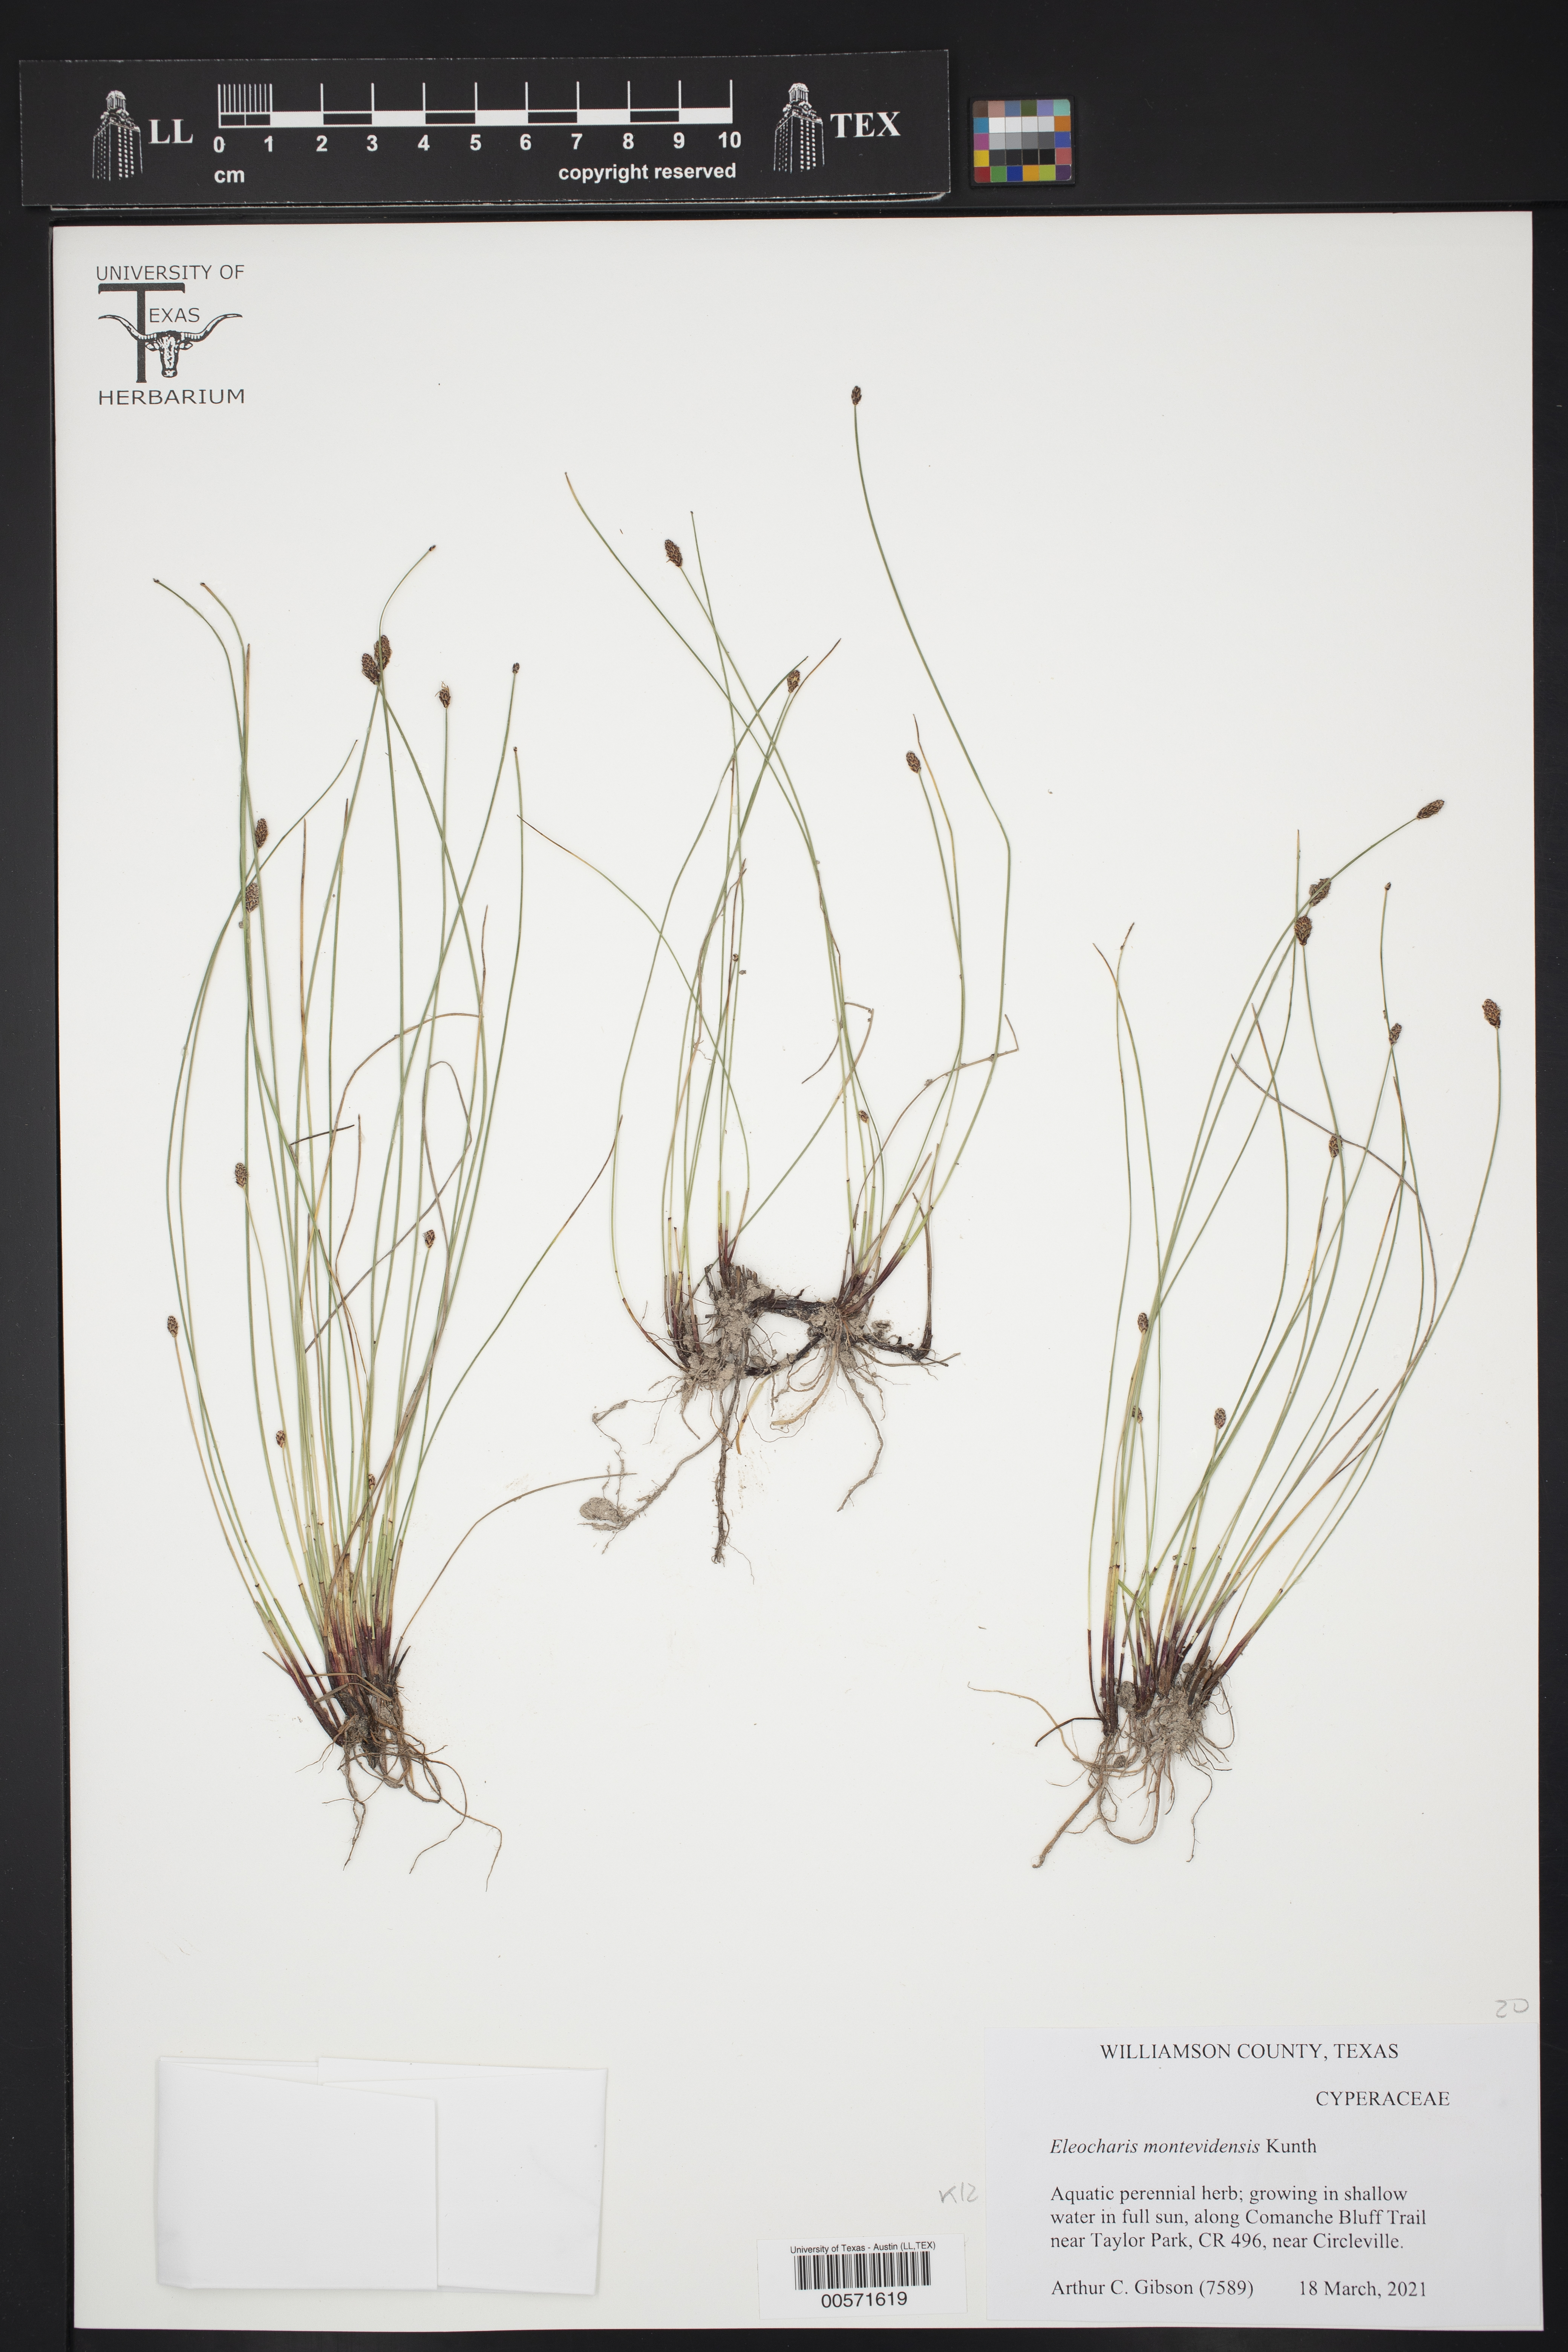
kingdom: Plantae
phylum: Tracheophyta
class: Liliopsida
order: Poales
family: Cyperaceae
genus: Eleocharis
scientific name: Eleocharis montevidensis
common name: Sand spike-rush
